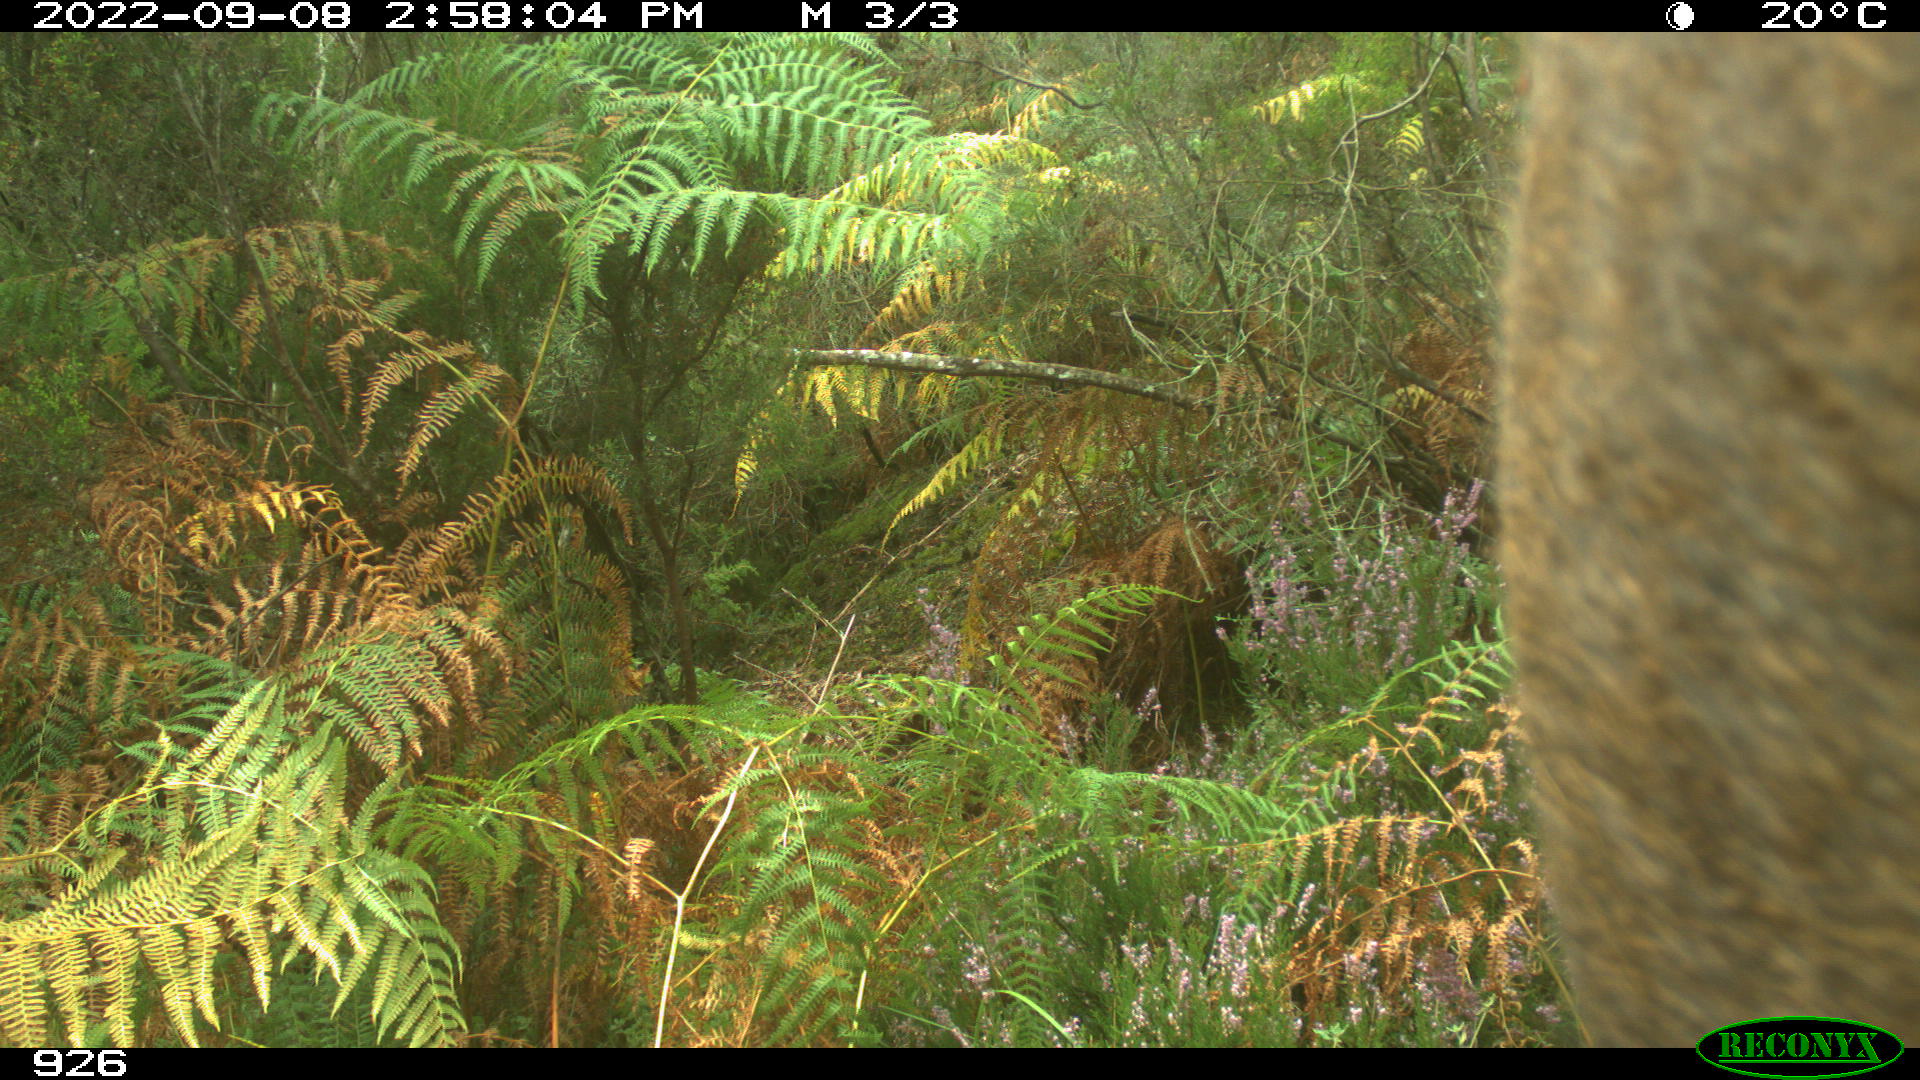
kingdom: Animalia
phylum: Chordata
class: Mammalia
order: Artiodactyla
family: Bovidae
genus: Bos
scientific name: Bos taurus
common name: Domesticated cattle
